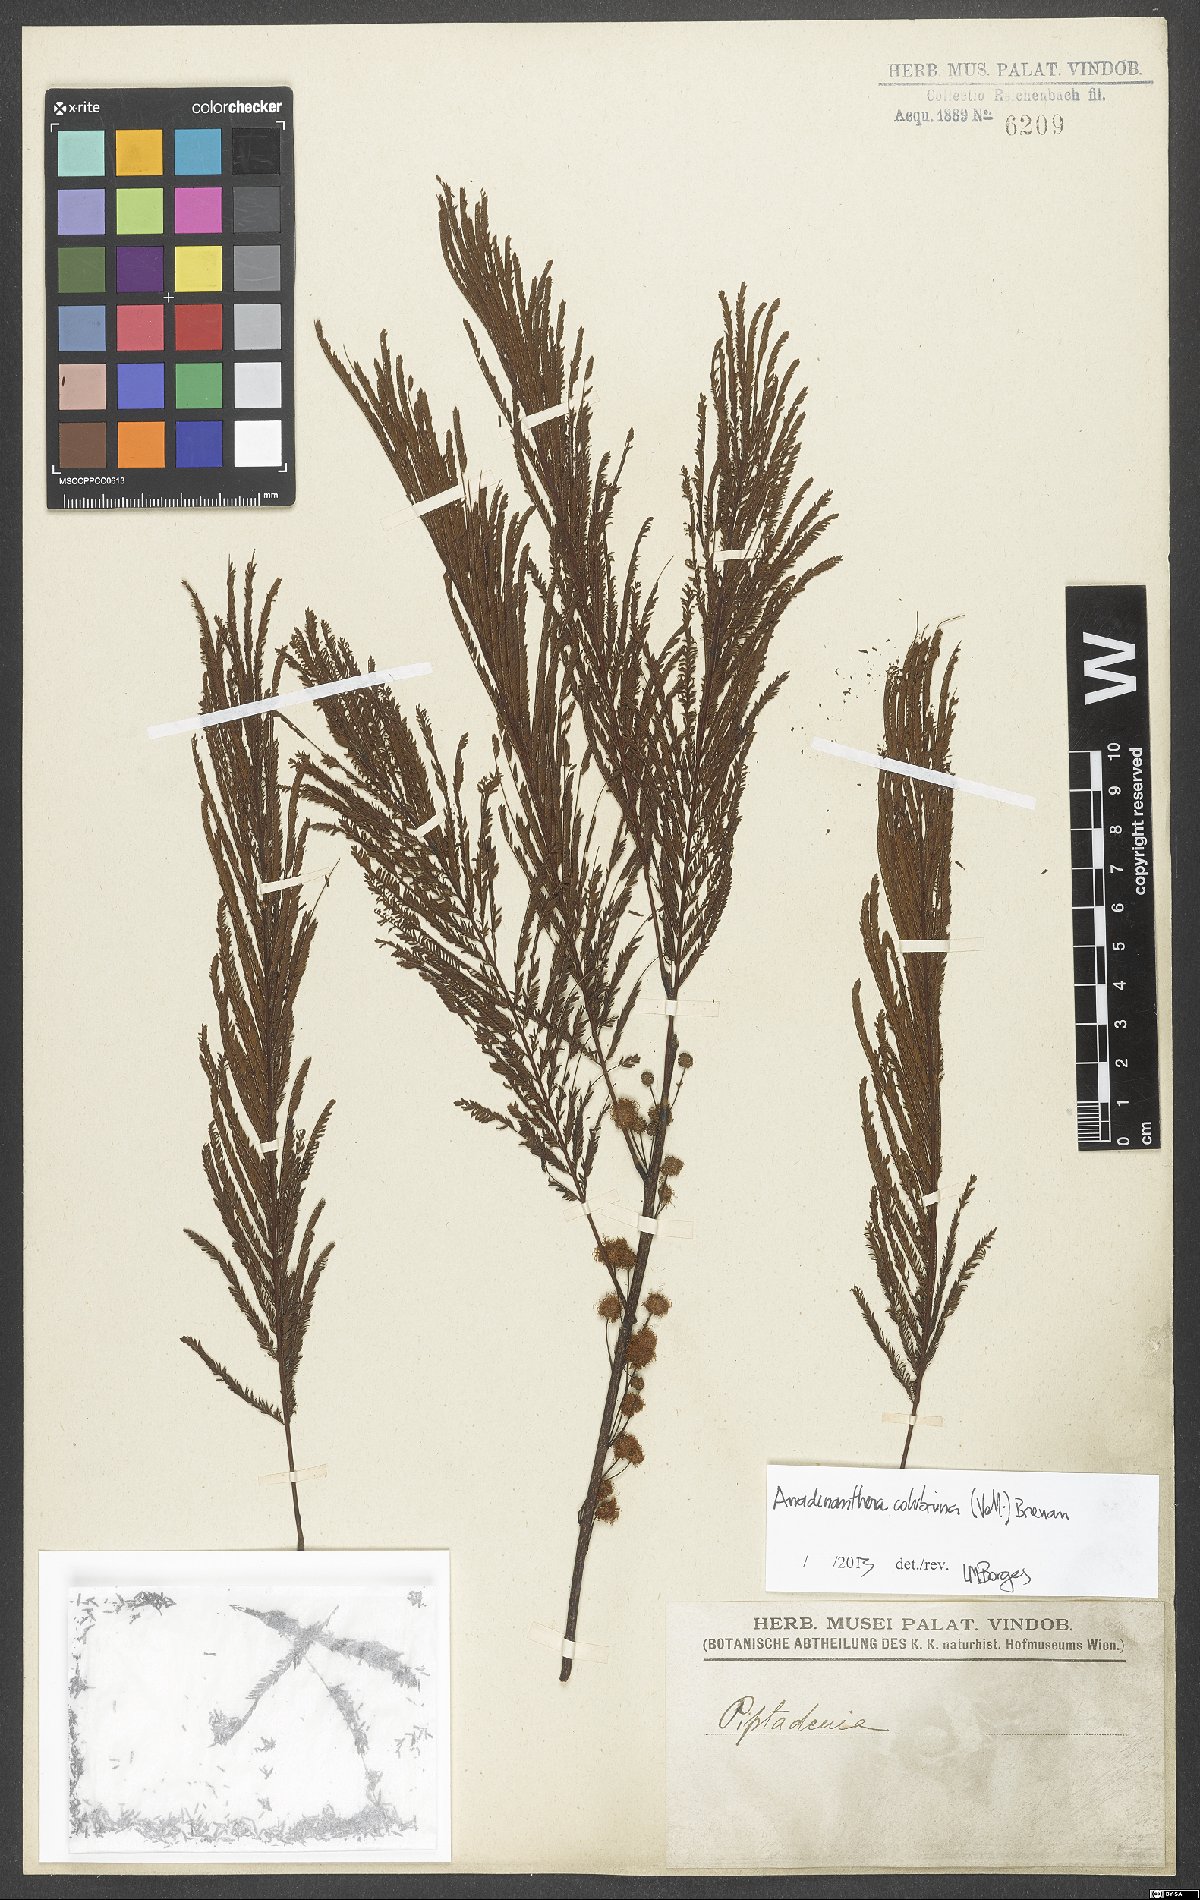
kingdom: Plantae
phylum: Tracheophyta
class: Magnoliopsida
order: Fabales
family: Fabaceae
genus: Anadenanthera
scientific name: Anadenanthera colubrina
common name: Curupay
